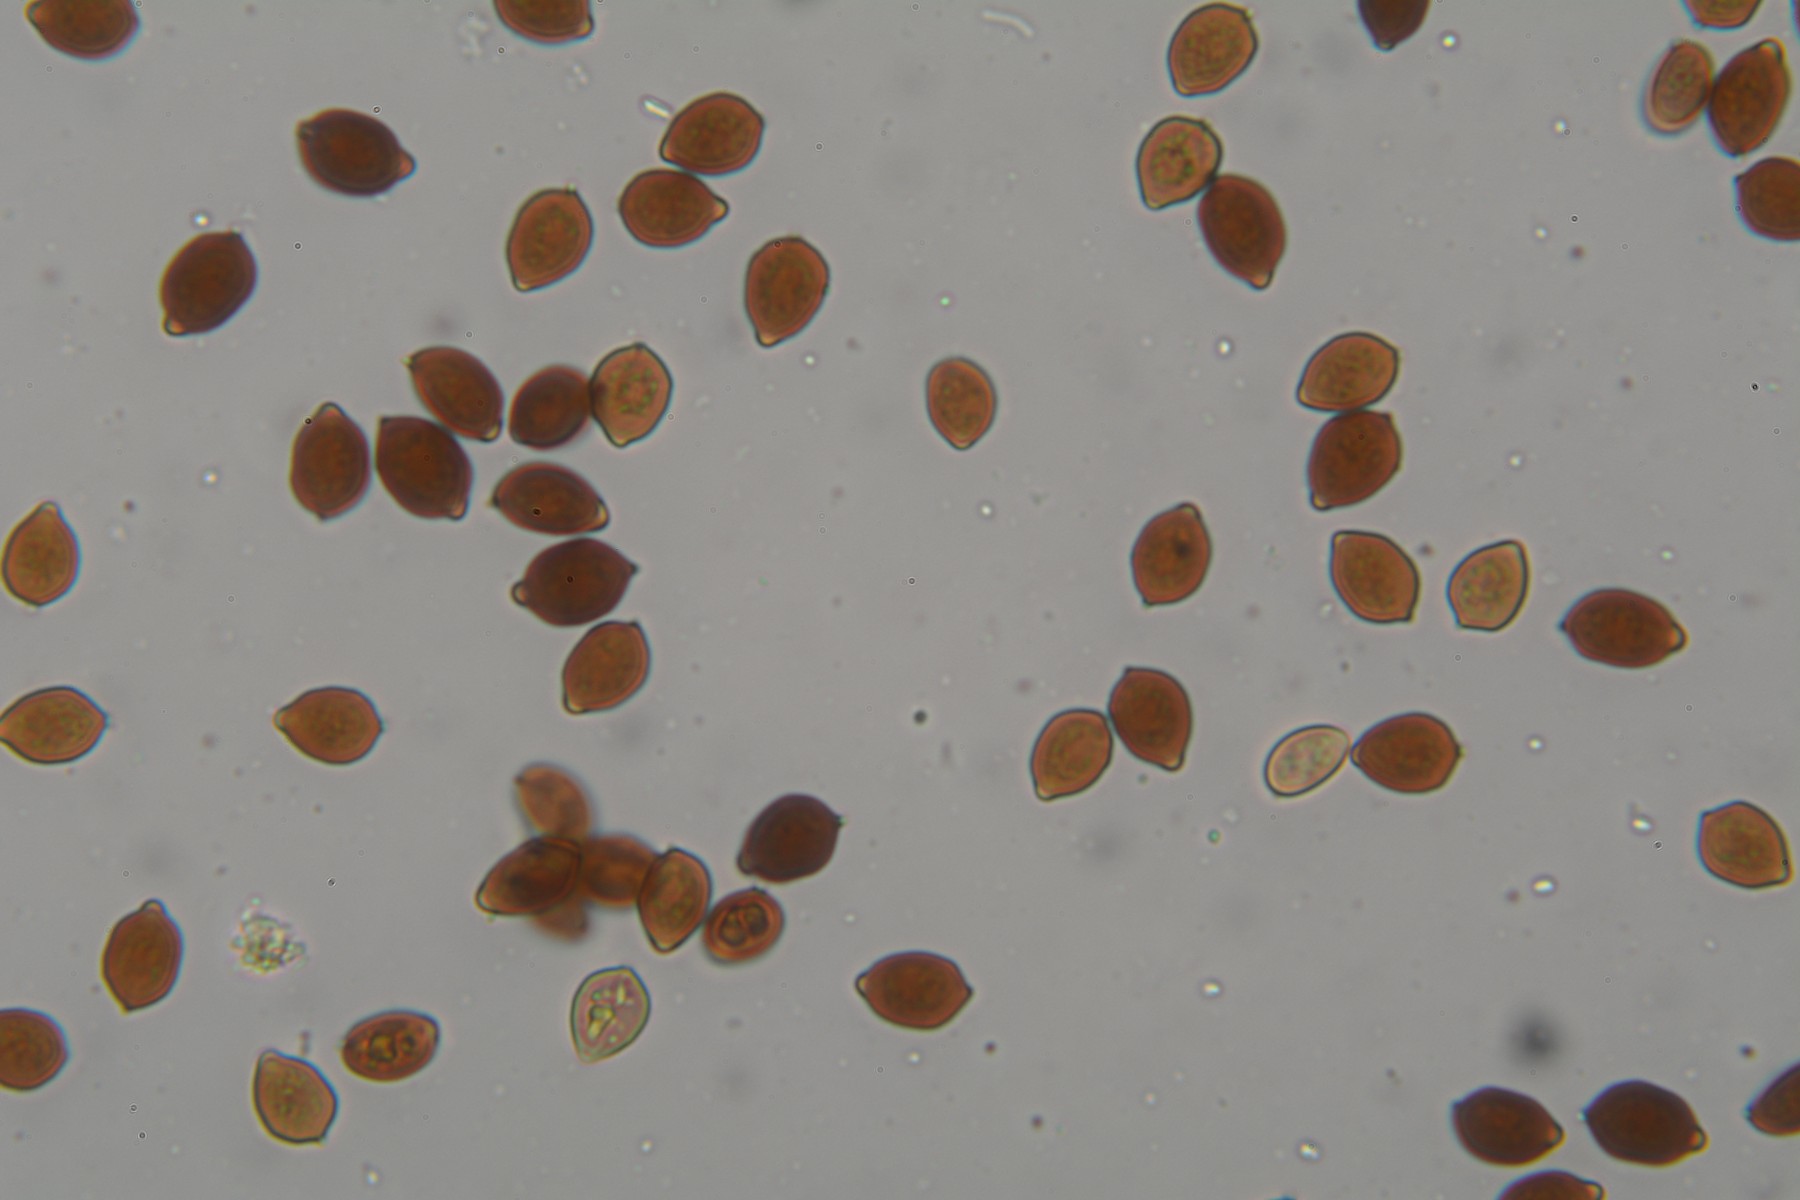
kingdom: Fungi
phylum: Basidiomycota
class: Agaricomycetes
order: Agaricales
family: Psathyrellaceae
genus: Parasola
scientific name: Parasola
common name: hjulhat
